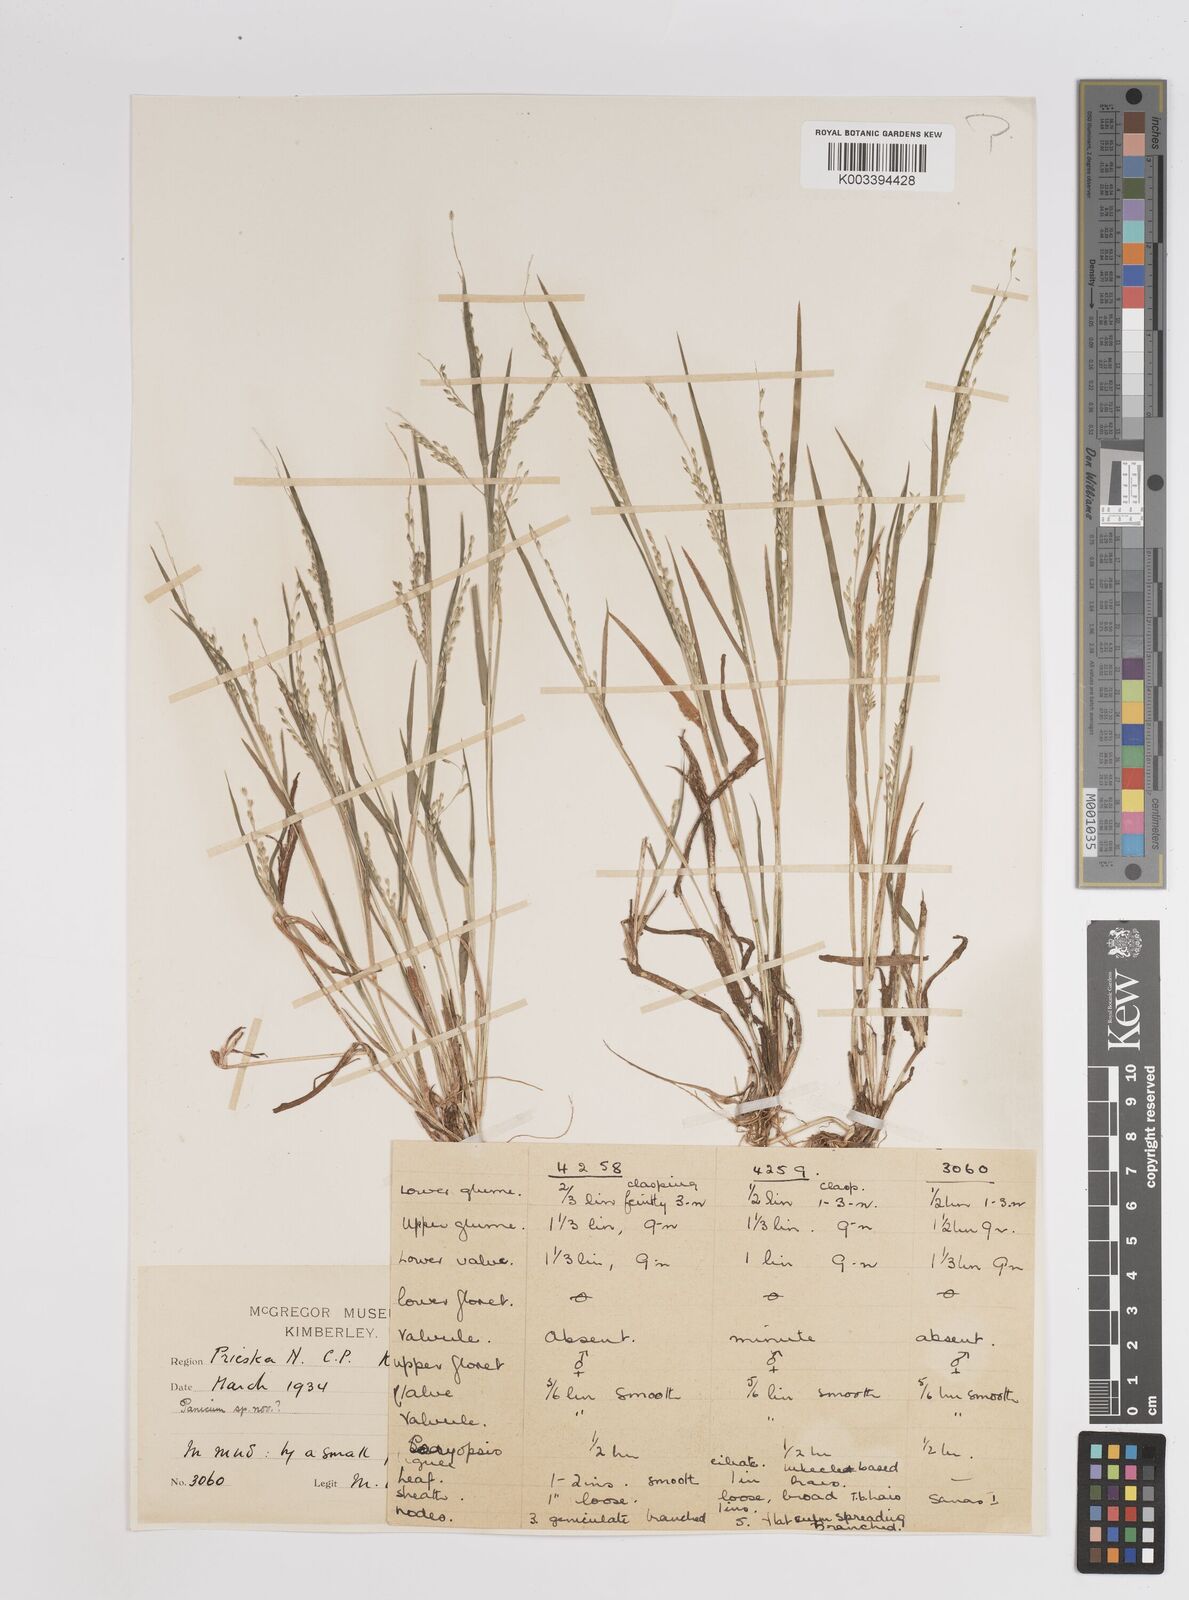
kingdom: Plantae
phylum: Tracheophyta
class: Liliopsida
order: Poales
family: Poaceae
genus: Panicum
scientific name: Panicum
